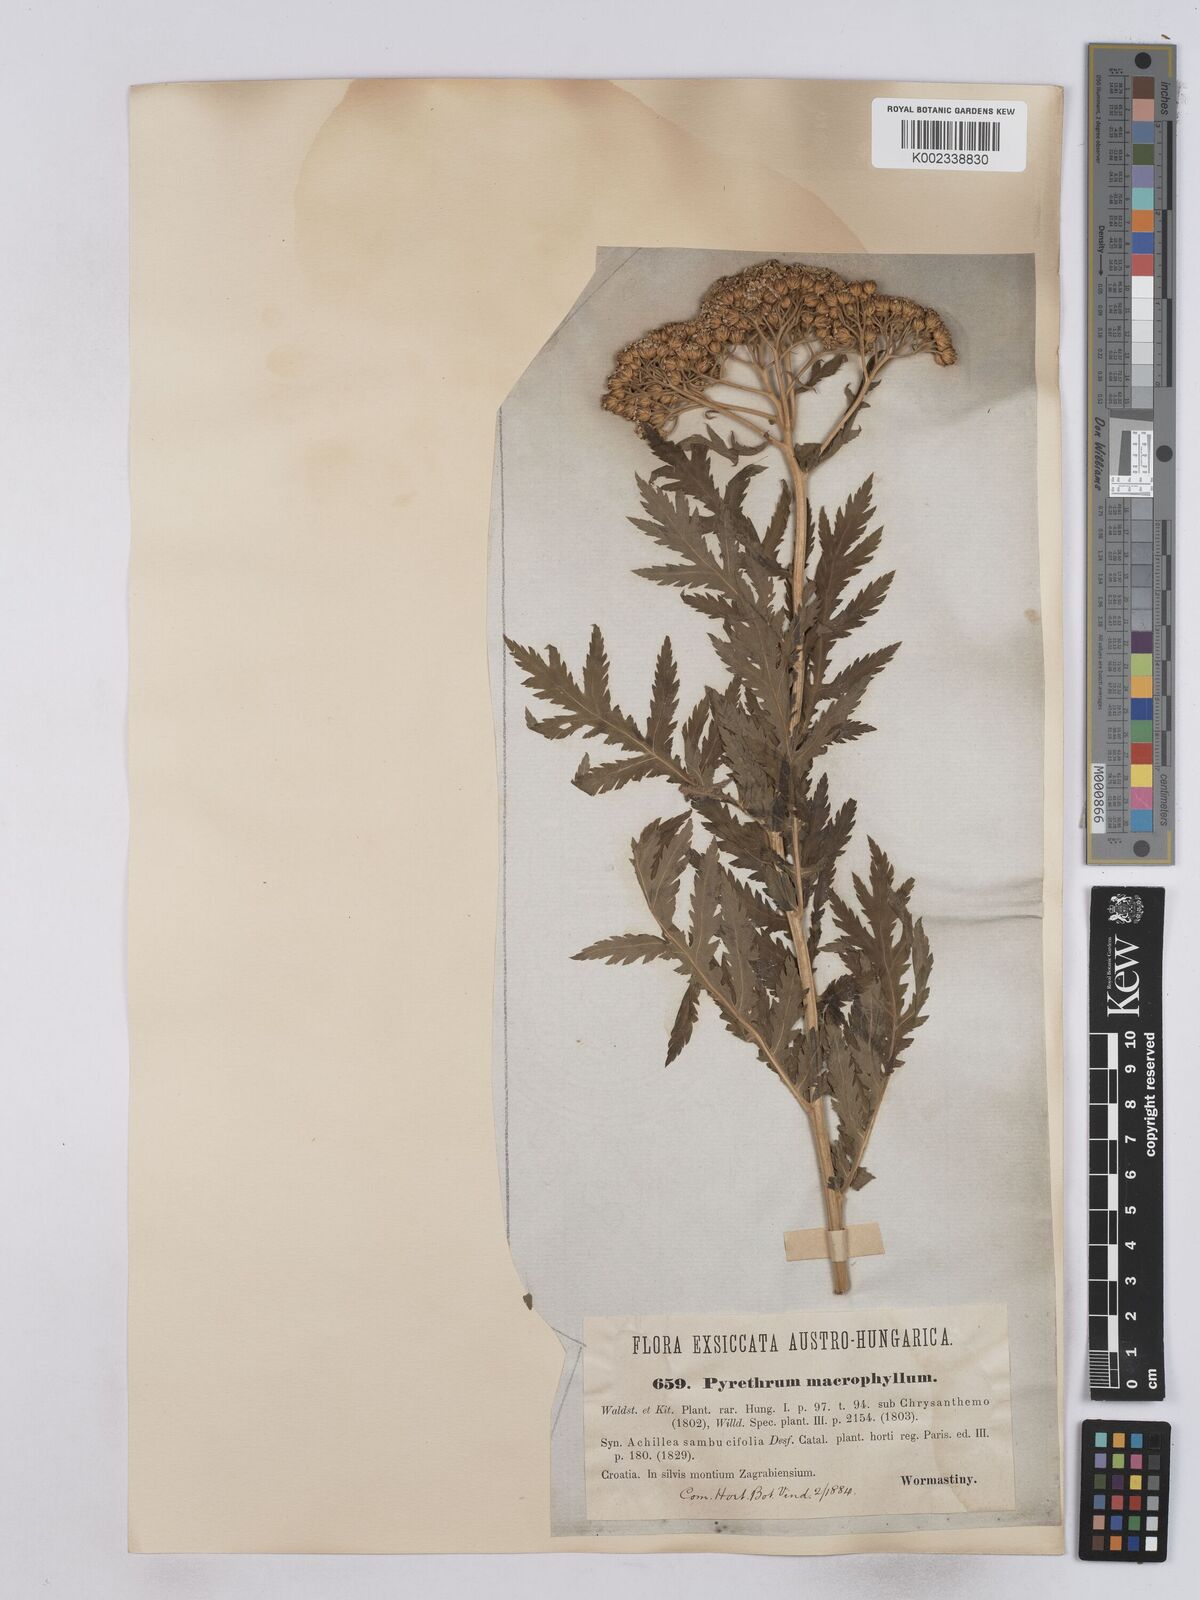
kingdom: Plantae
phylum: Tracheophyta
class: Magnoliopsida
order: Asterales
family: Asteraceae
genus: Tanacetum
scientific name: Tanacetum macrophyllum
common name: Rayed tansy
